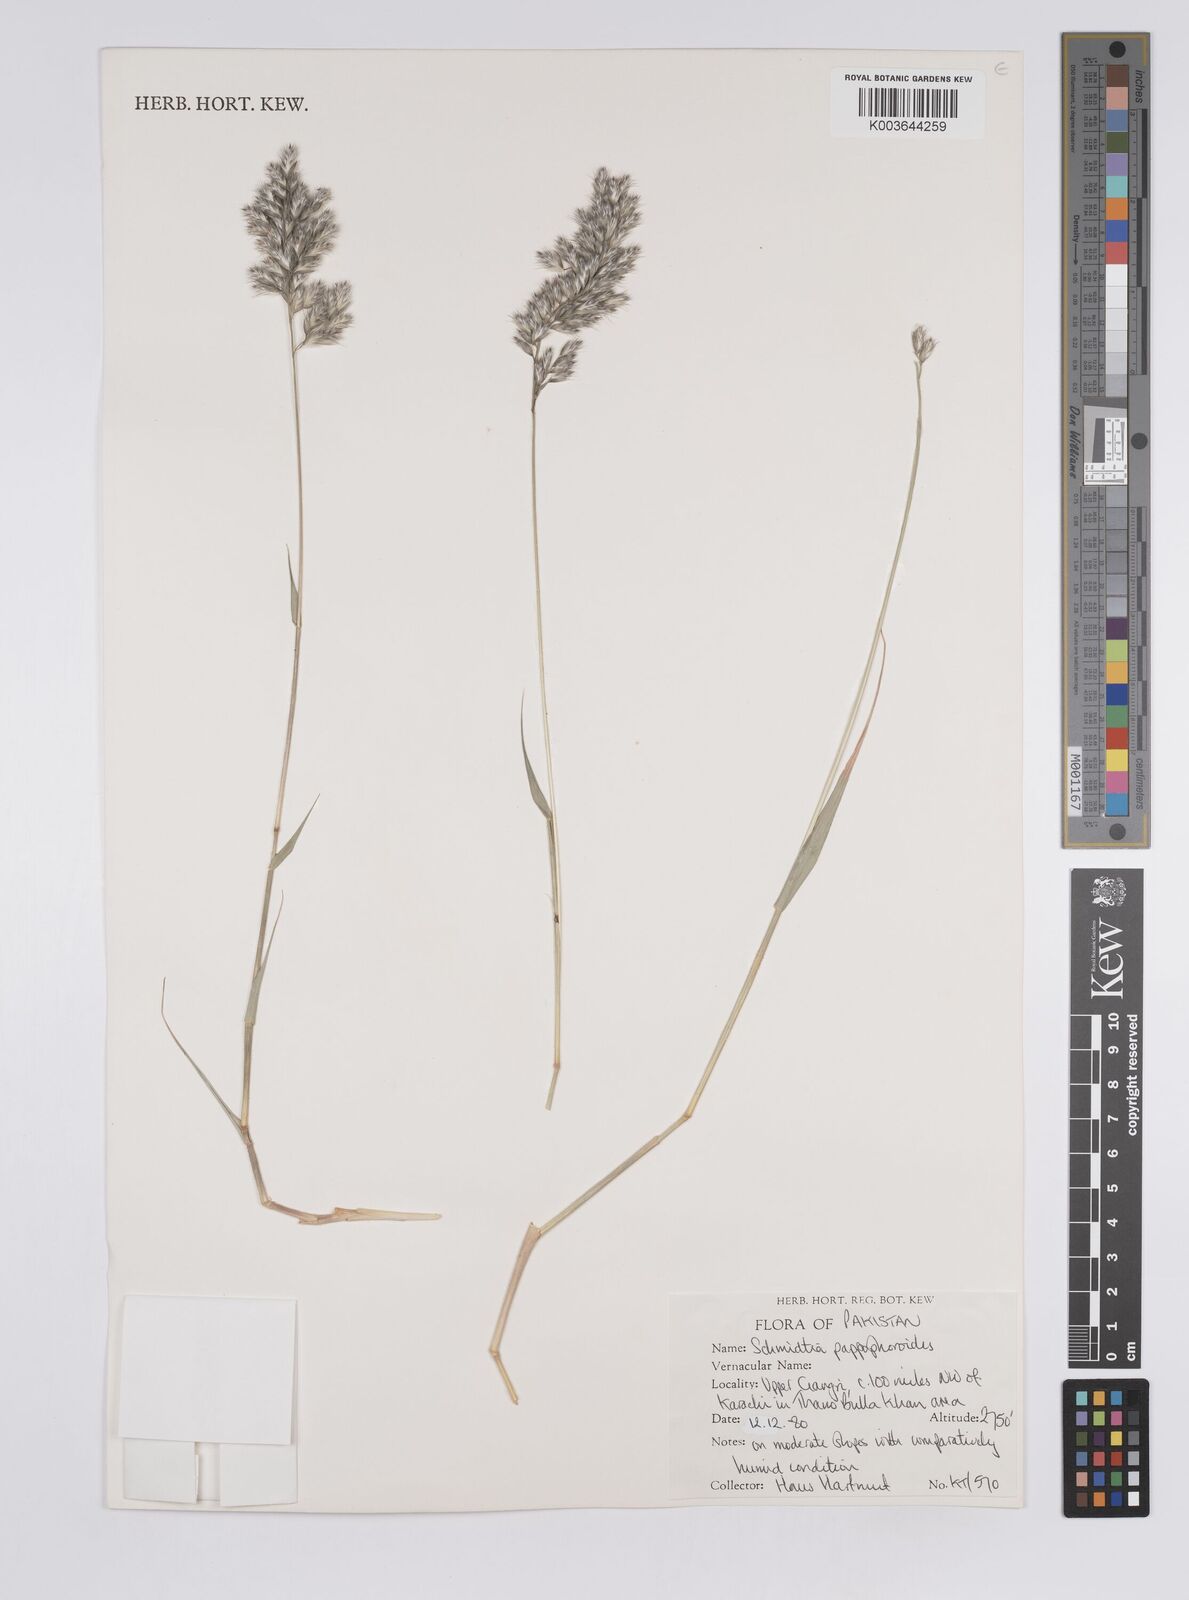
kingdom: Plantae
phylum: Tracheophyta
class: Liliopsida
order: Poales
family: Poaceae
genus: Schmidtia
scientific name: Schmidtia pappophoroides
